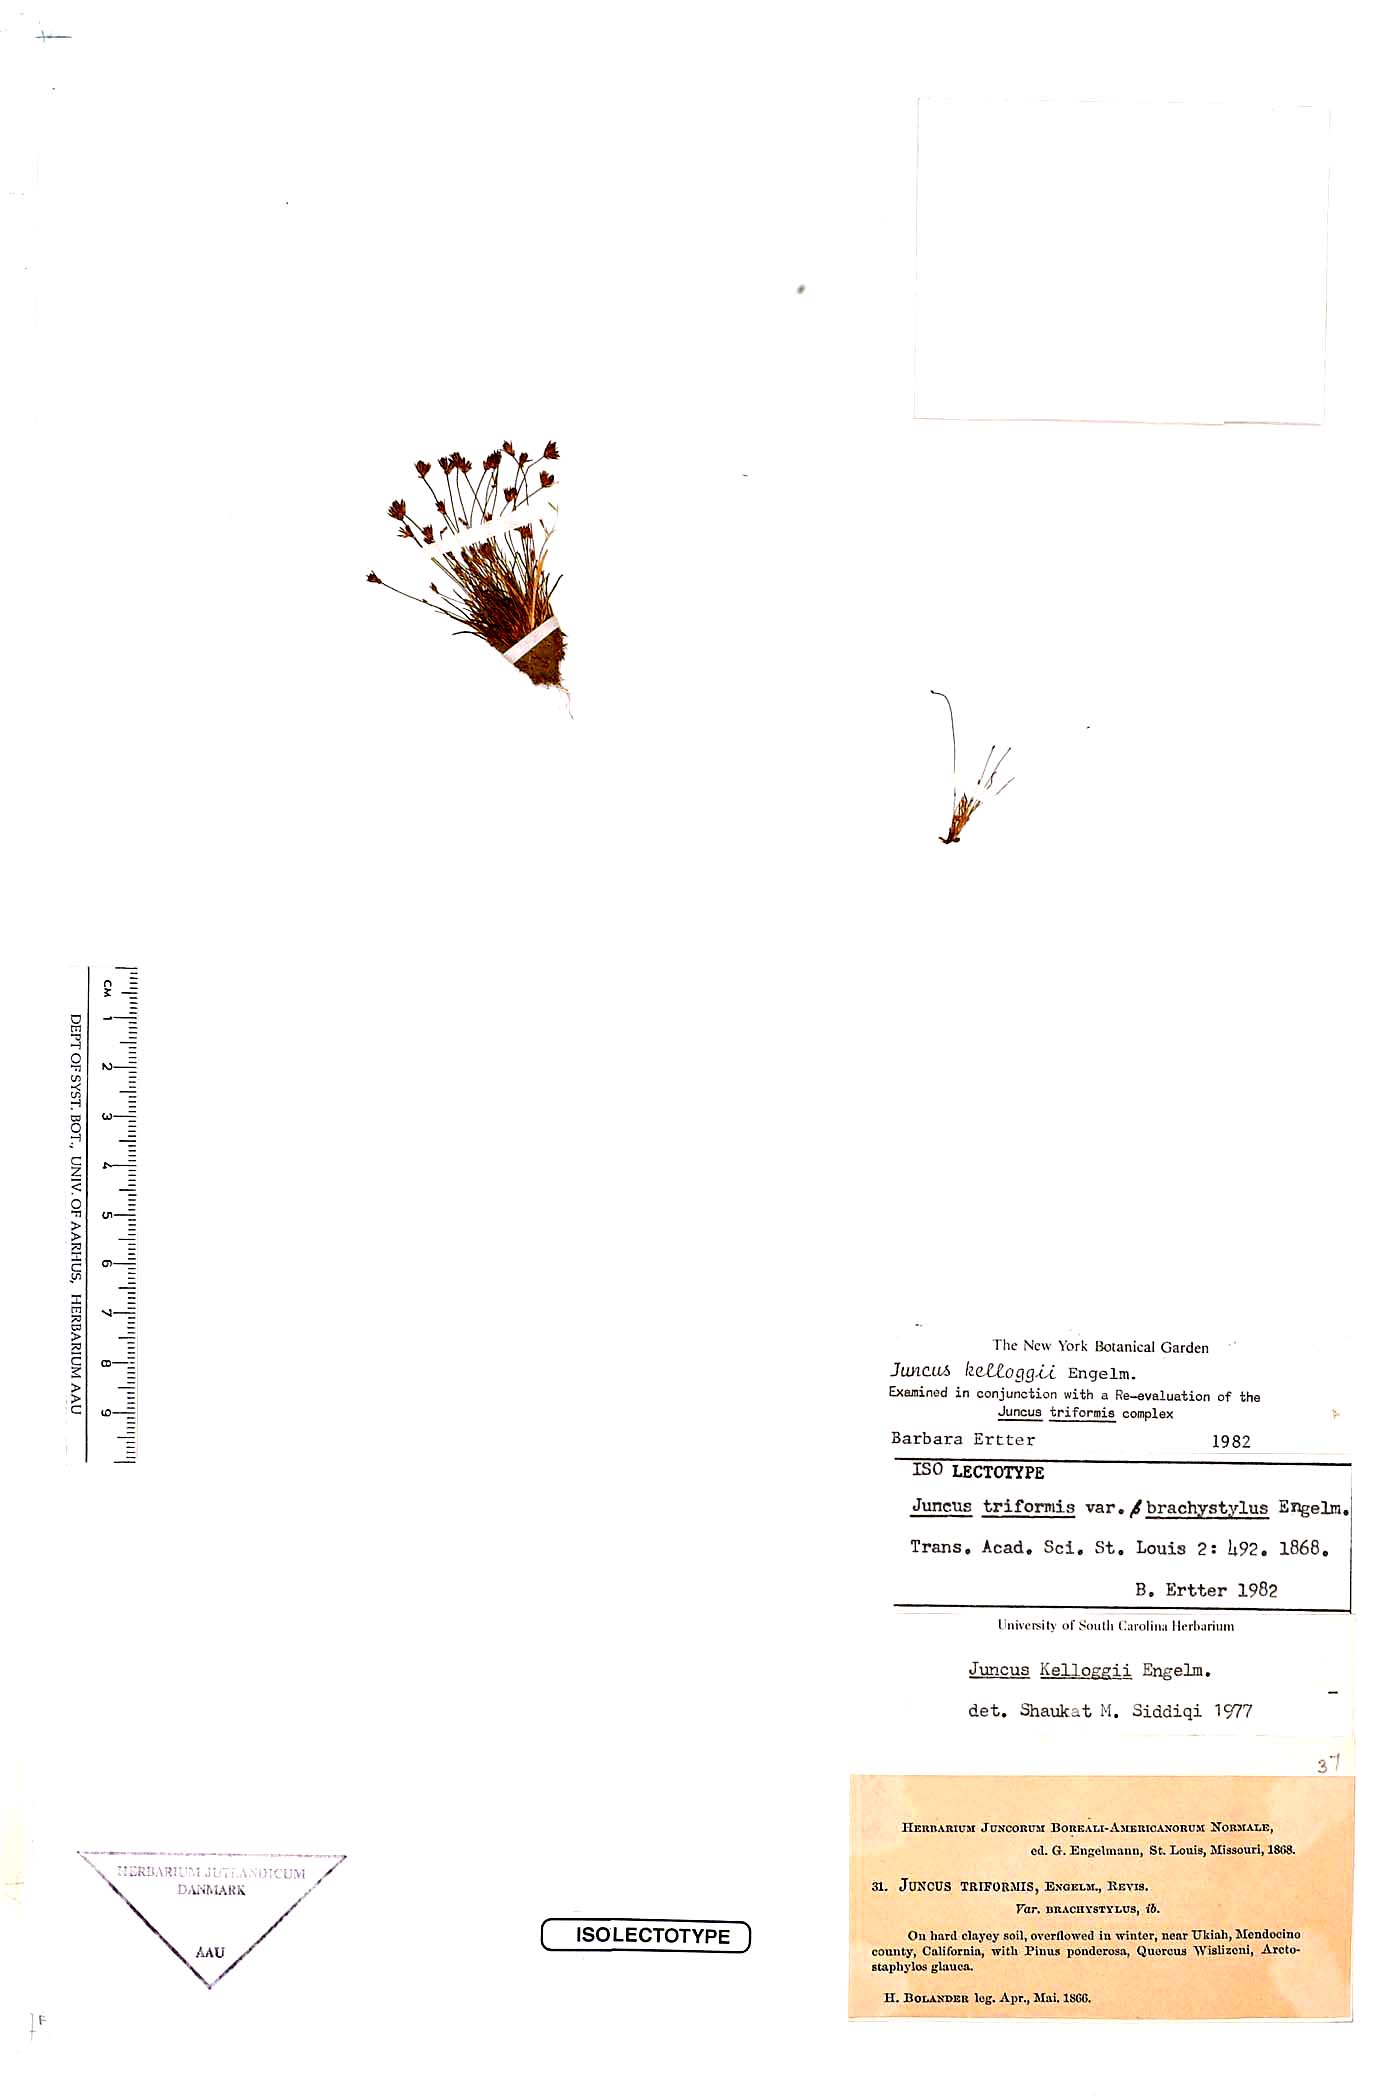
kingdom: Plantae
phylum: Tracheophyta
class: Liliopsida
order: Poales
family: Juncaceae
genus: Juncus
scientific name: Juncus kelloggii
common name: Kellogg's dwarf rush
